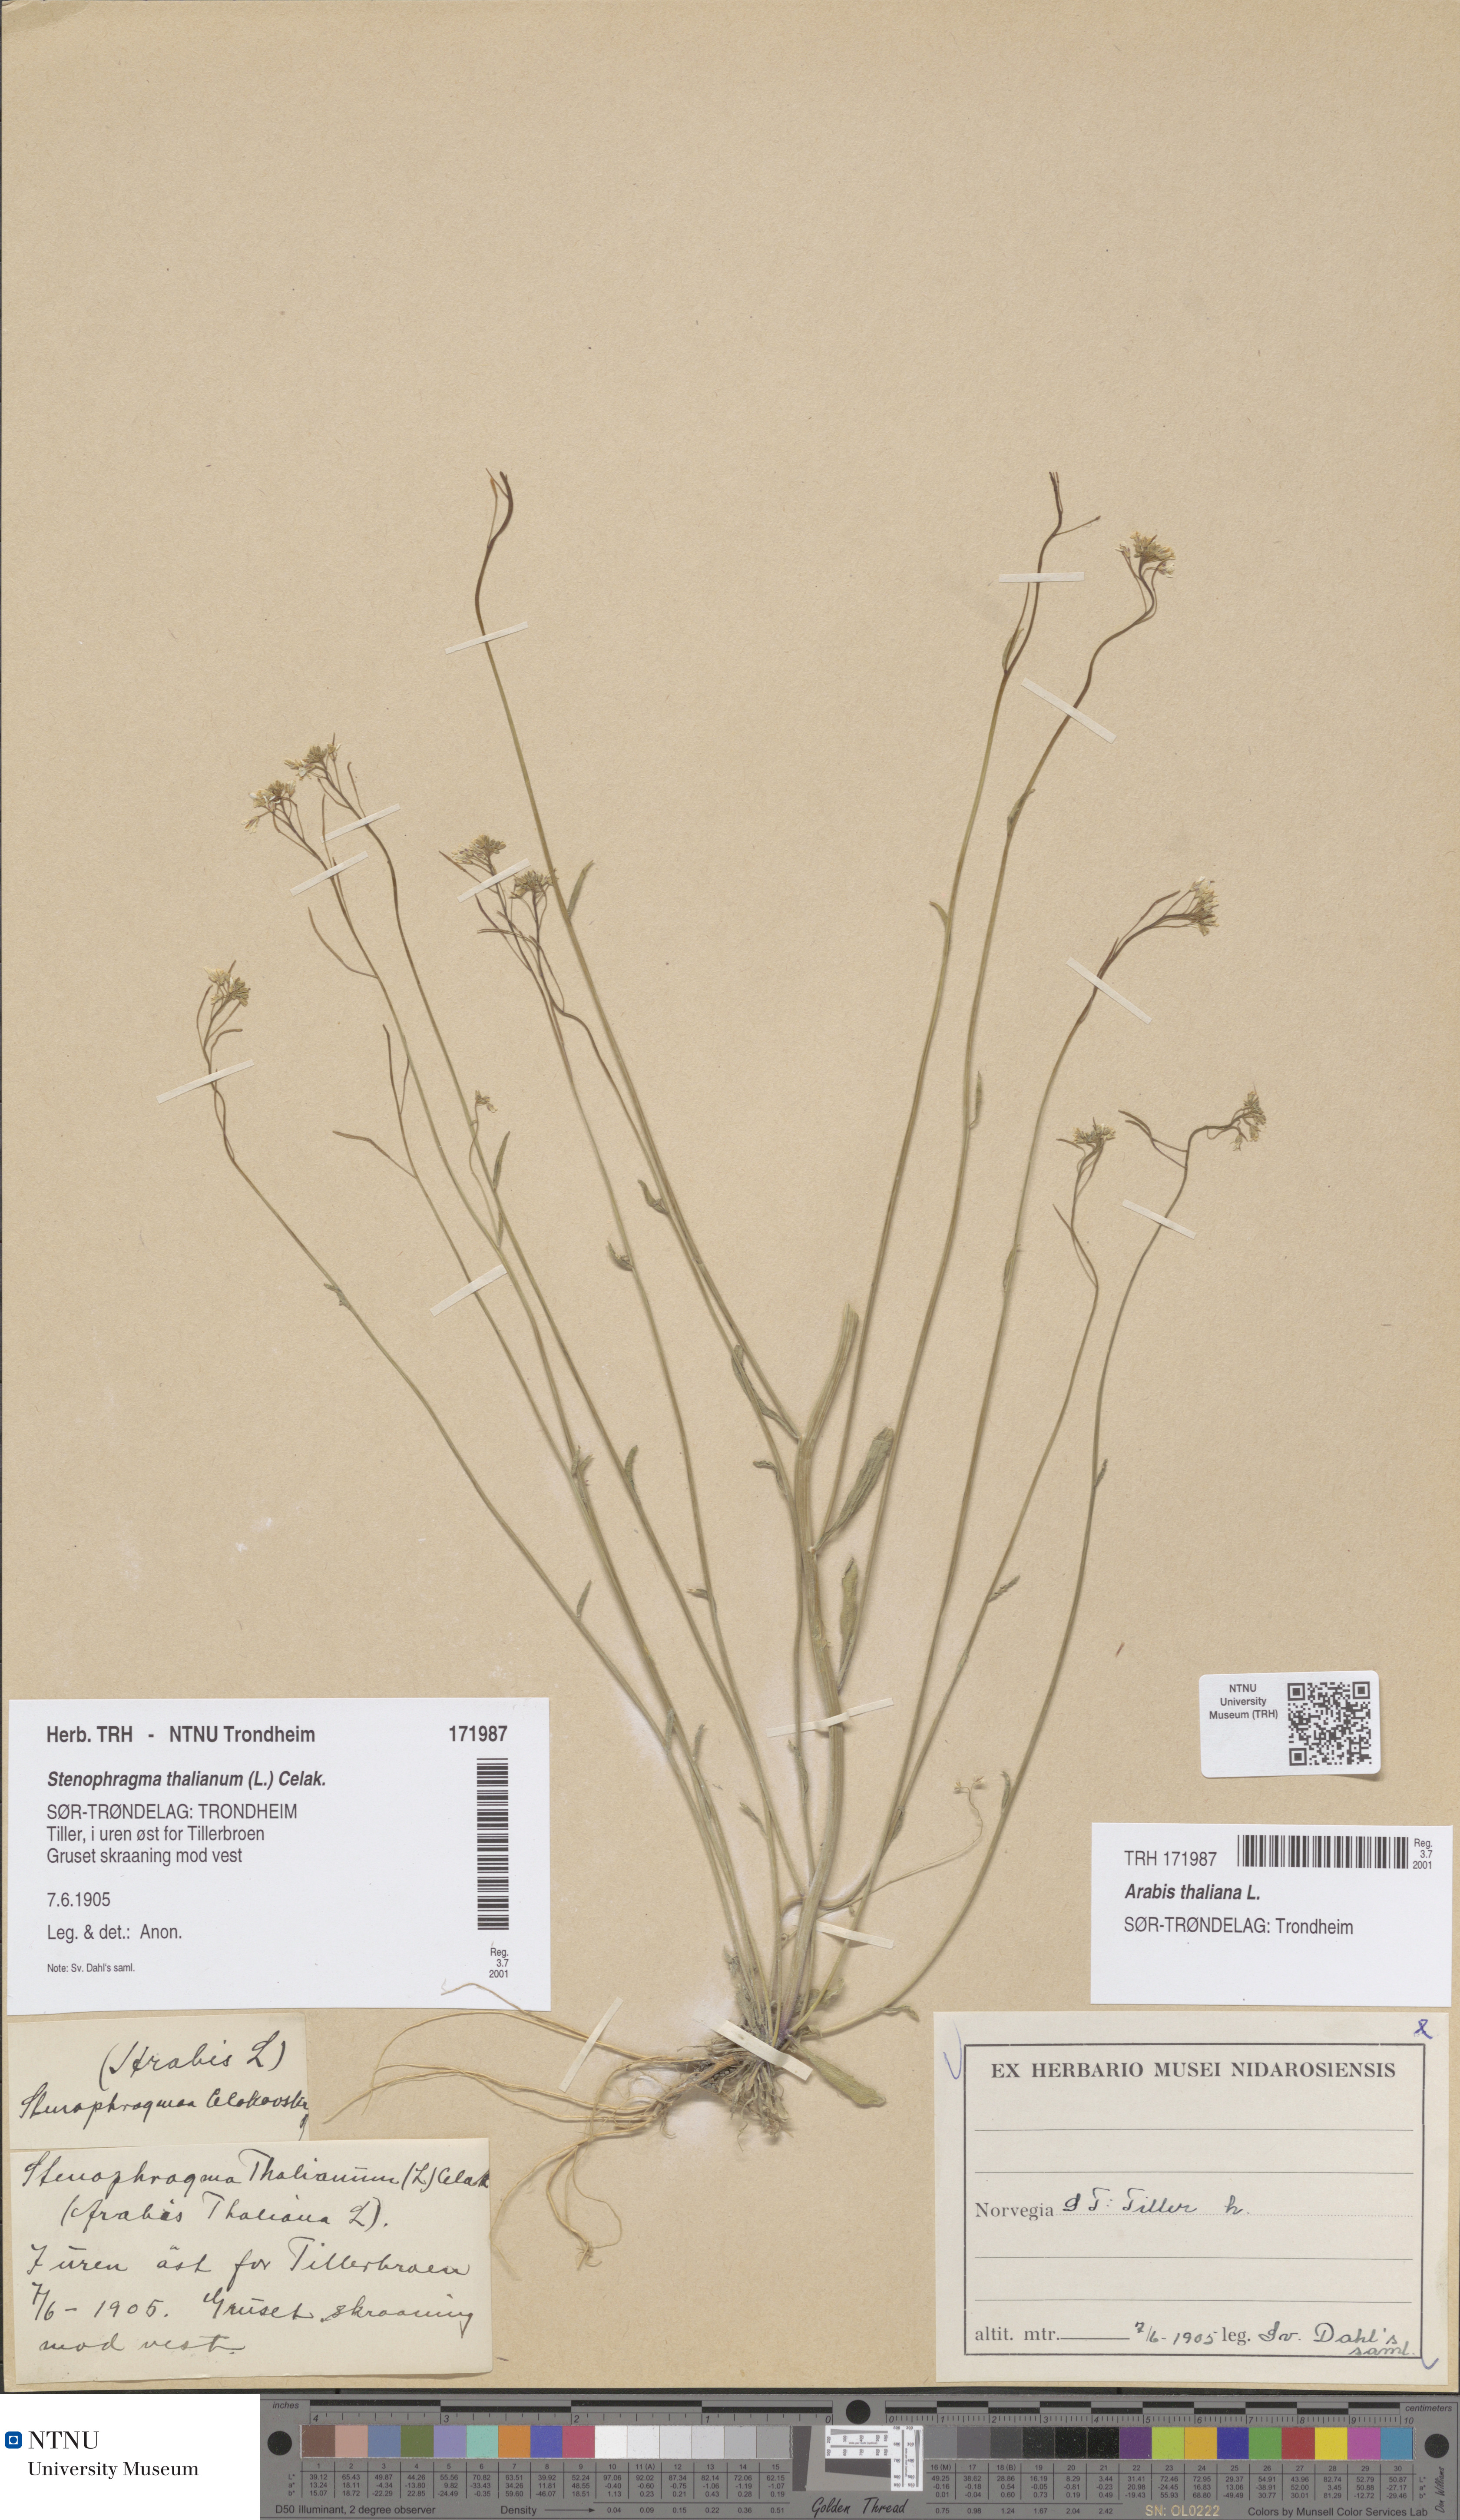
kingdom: Plantae
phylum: Tracheophyta
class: Magnoliopsida
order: Brassicales
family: Brassicaceae
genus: Arabidopsis
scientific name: Arabidopsis thaliana
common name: Thale cress
